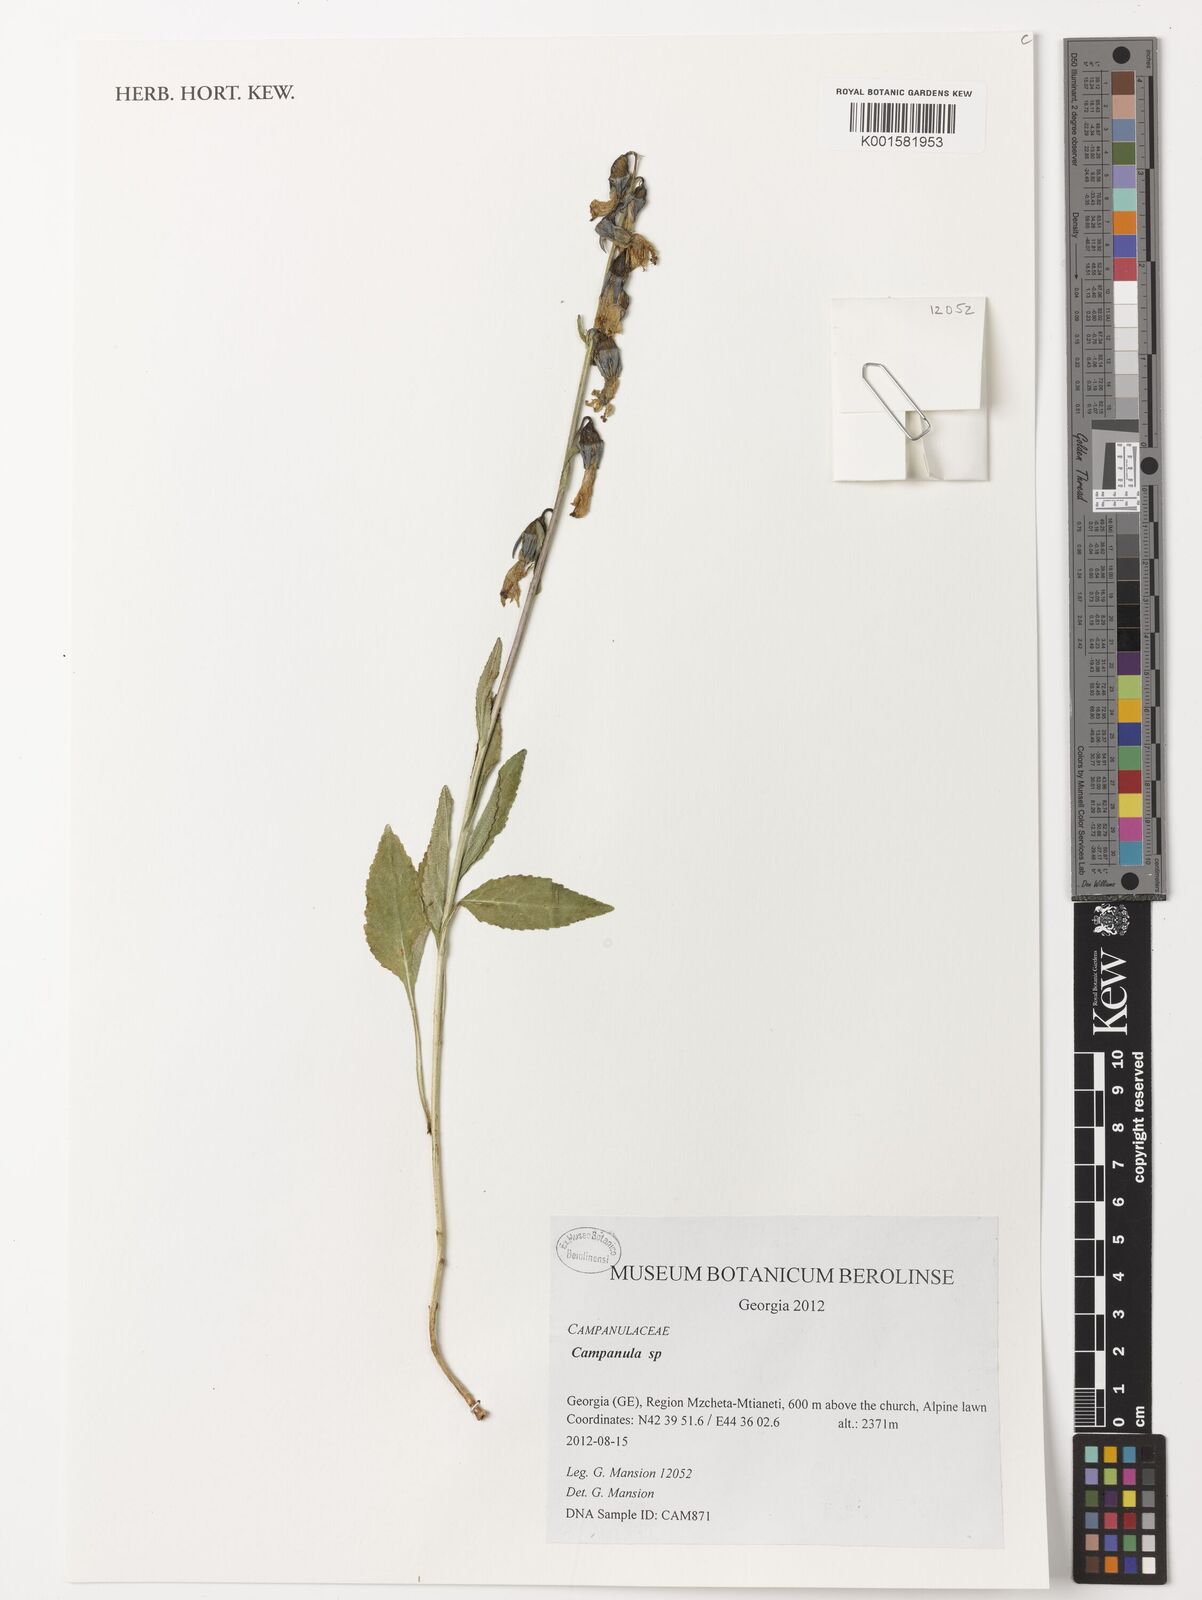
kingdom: Plantae
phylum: Tracheophyta
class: Magnoliopsida
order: Asterales
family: Campanulaceae
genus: Campanula
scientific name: Campanula
